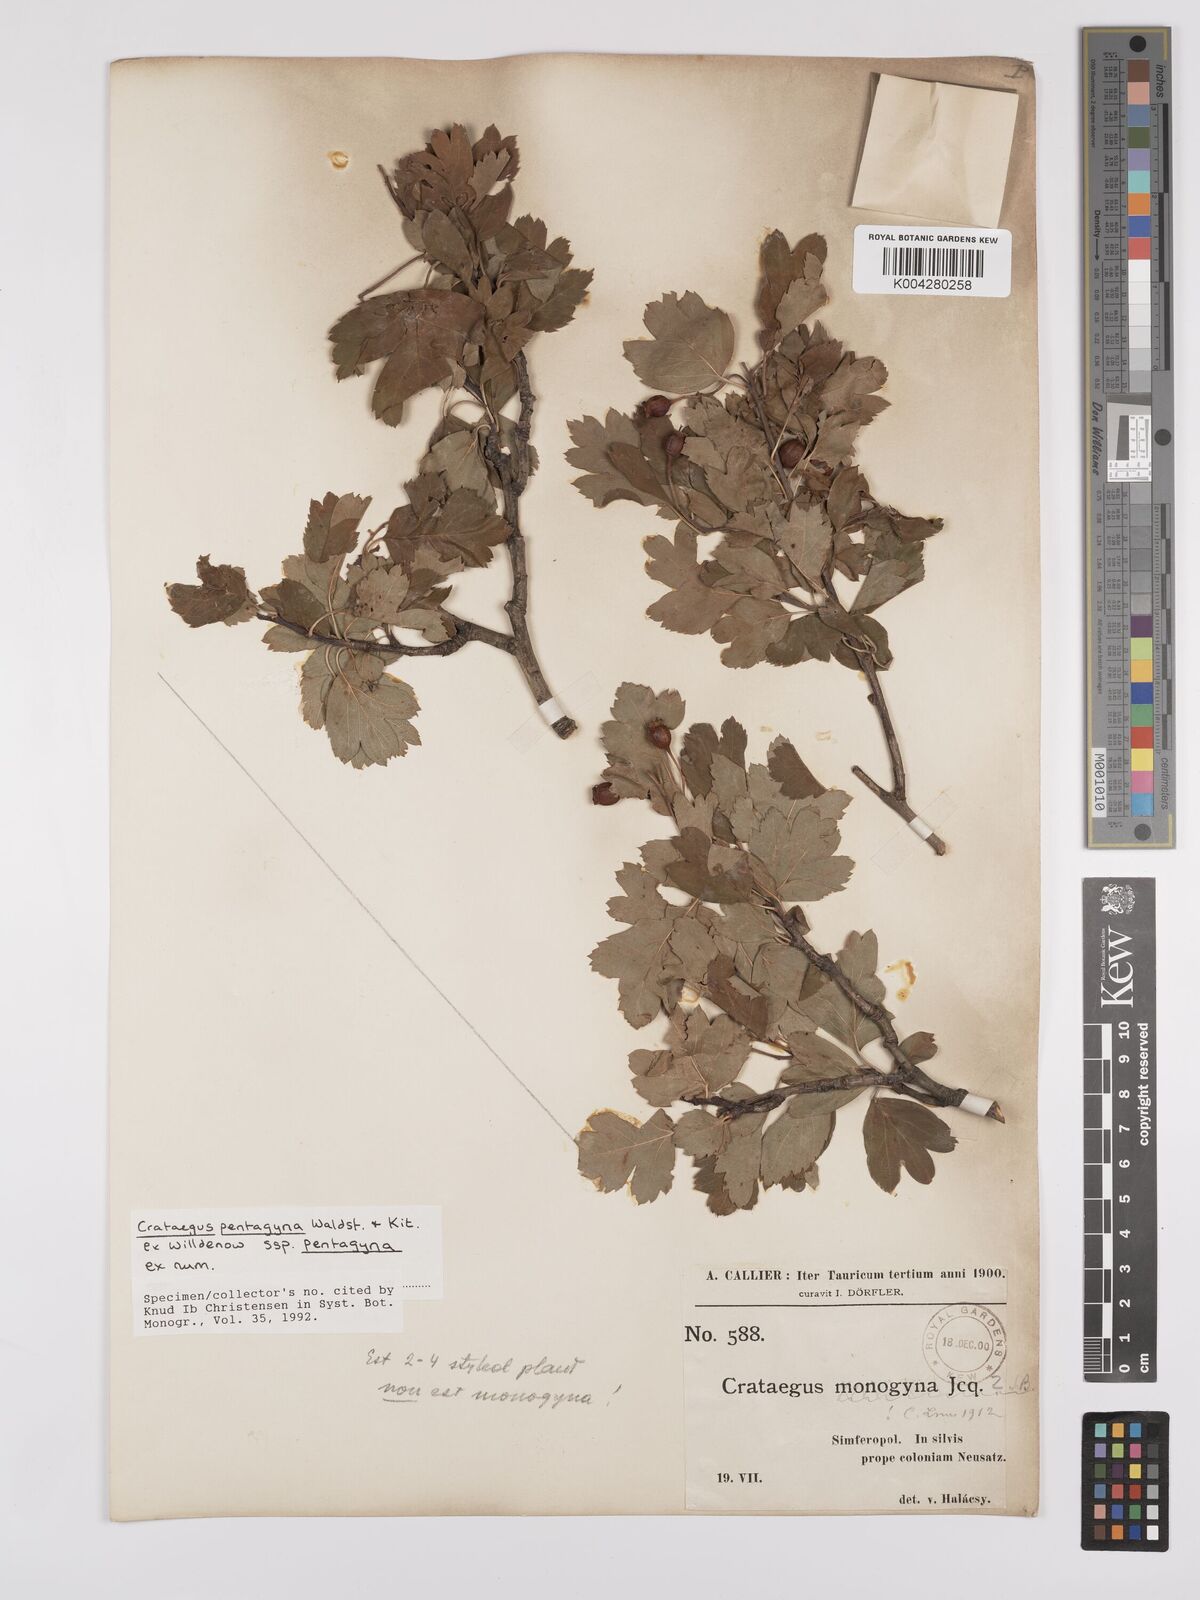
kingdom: Plantae
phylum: Tracheophyta
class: Magnoliopsida
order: Rosales
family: Rosaceae
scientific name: Rosaceae
